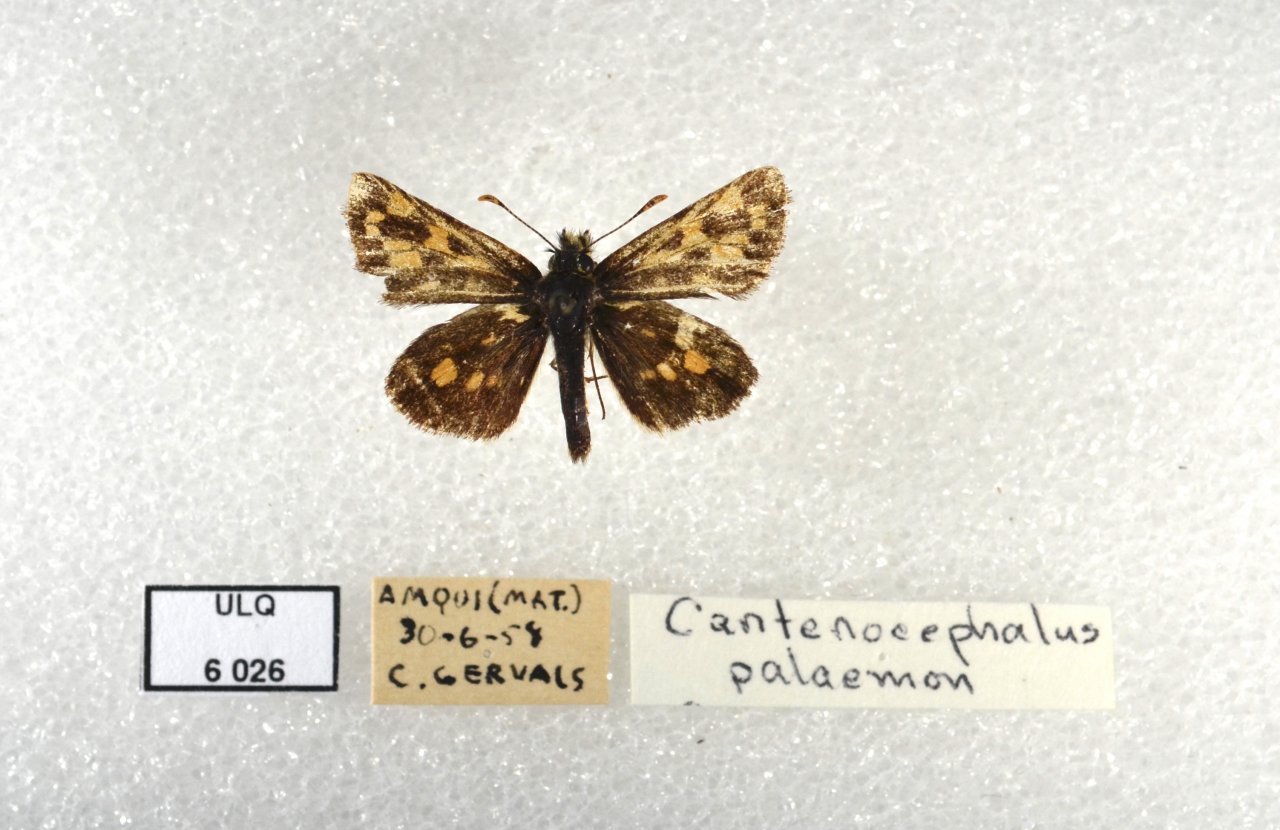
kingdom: Animalia
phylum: Arthropoda
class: Insecta
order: Lepidoptera
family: Hesperiidae
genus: Carterocephalus
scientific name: Carterocephalus palaemon
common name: Chequered Skipper
